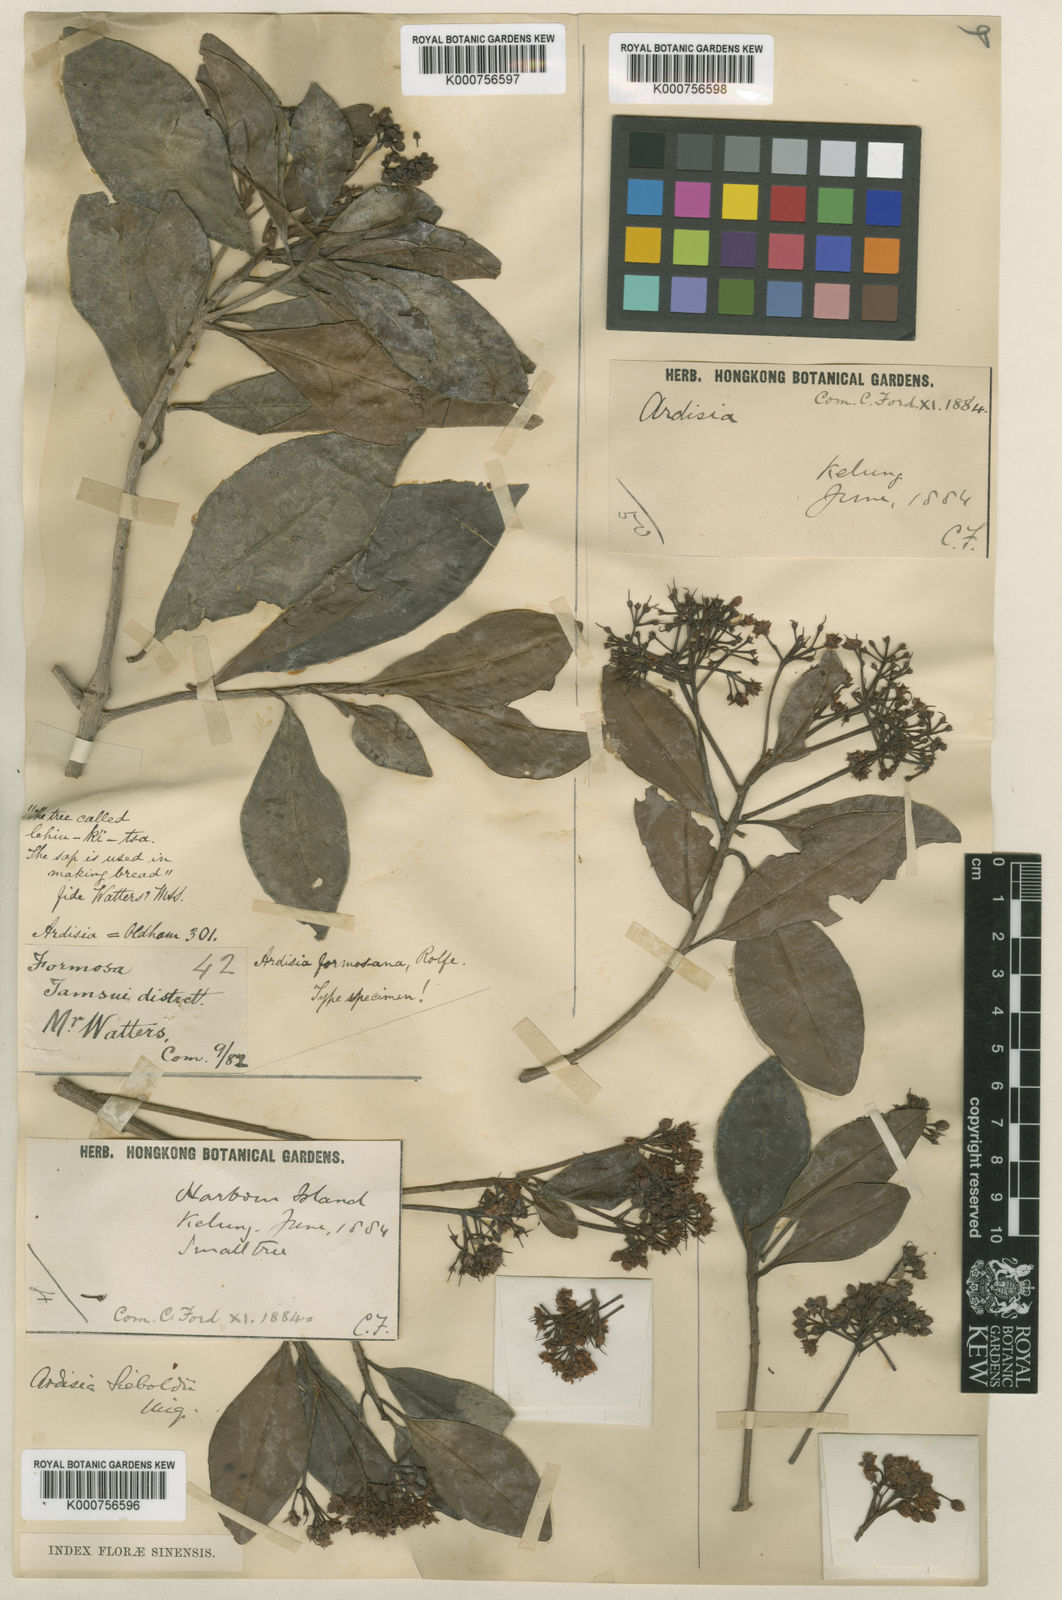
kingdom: Plantae
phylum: Tracheophyta
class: Magnoliopsida
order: Ericales
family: Primulaceae
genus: Ardisia
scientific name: Ardisia sieboldii
